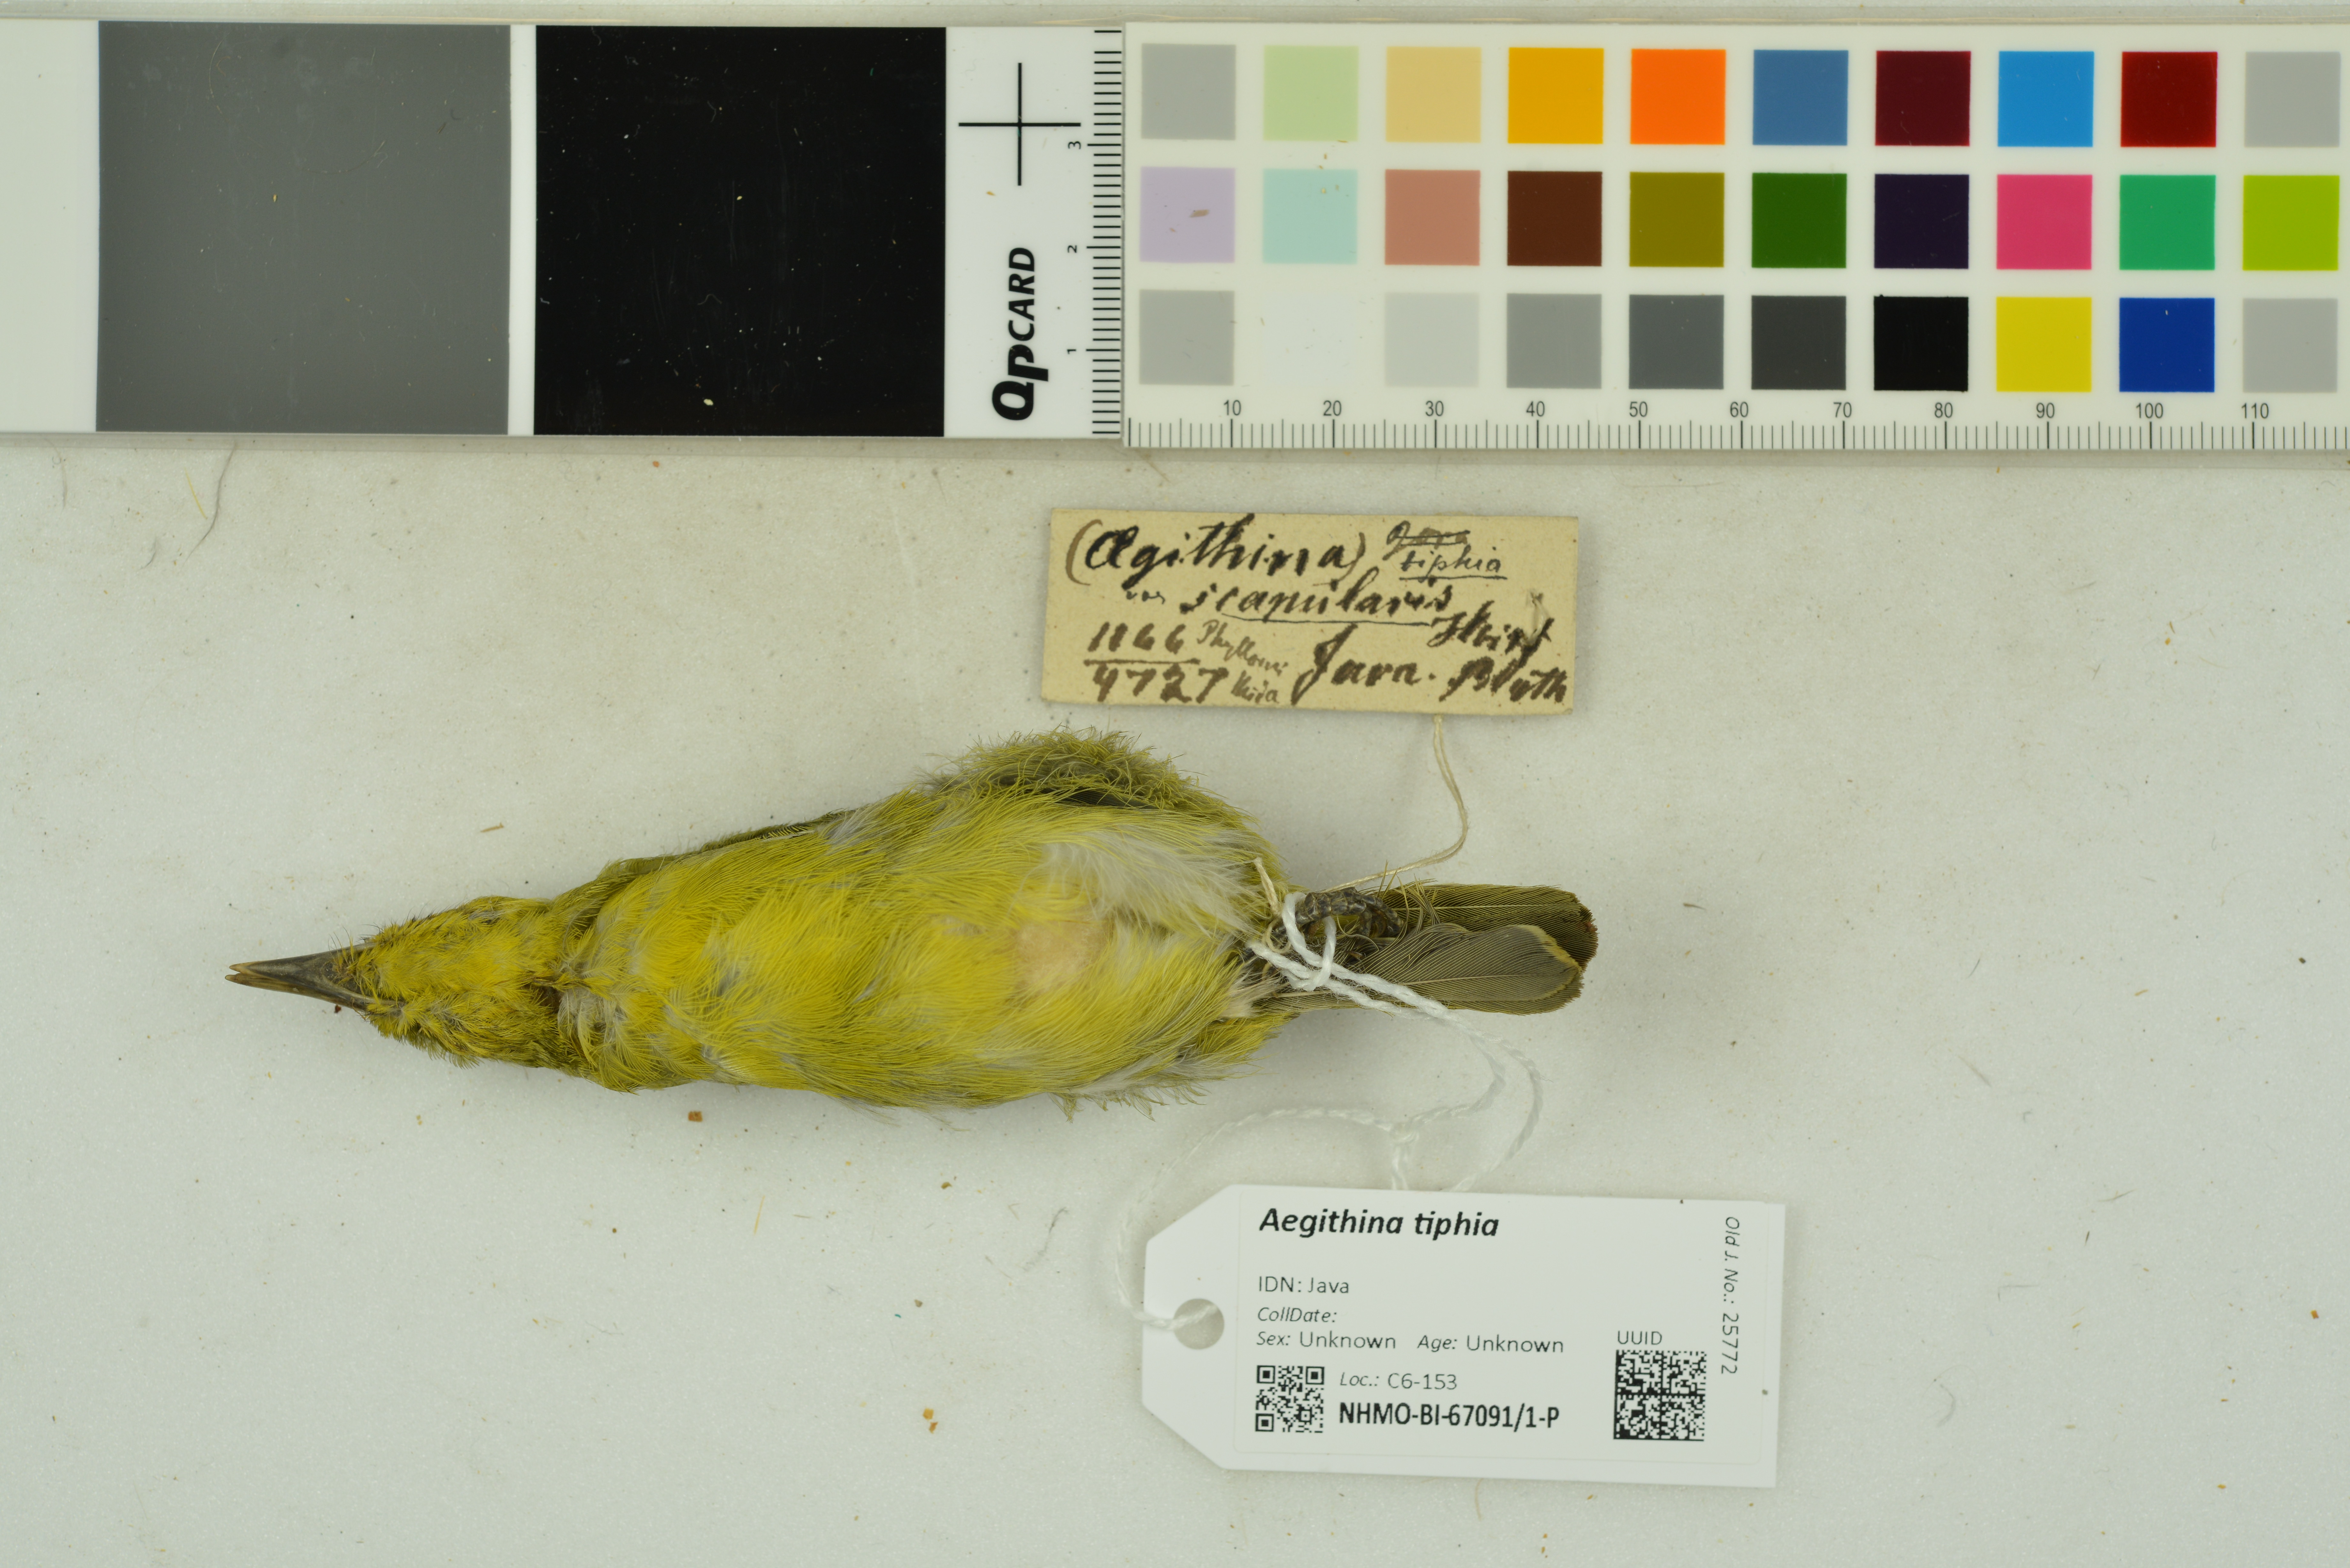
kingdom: Animalia
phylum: Chordata
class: Aves
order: Passeriformes
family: Aegithinidae
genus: Aegithina
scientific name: Aegithina tiphia
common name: Common iora
